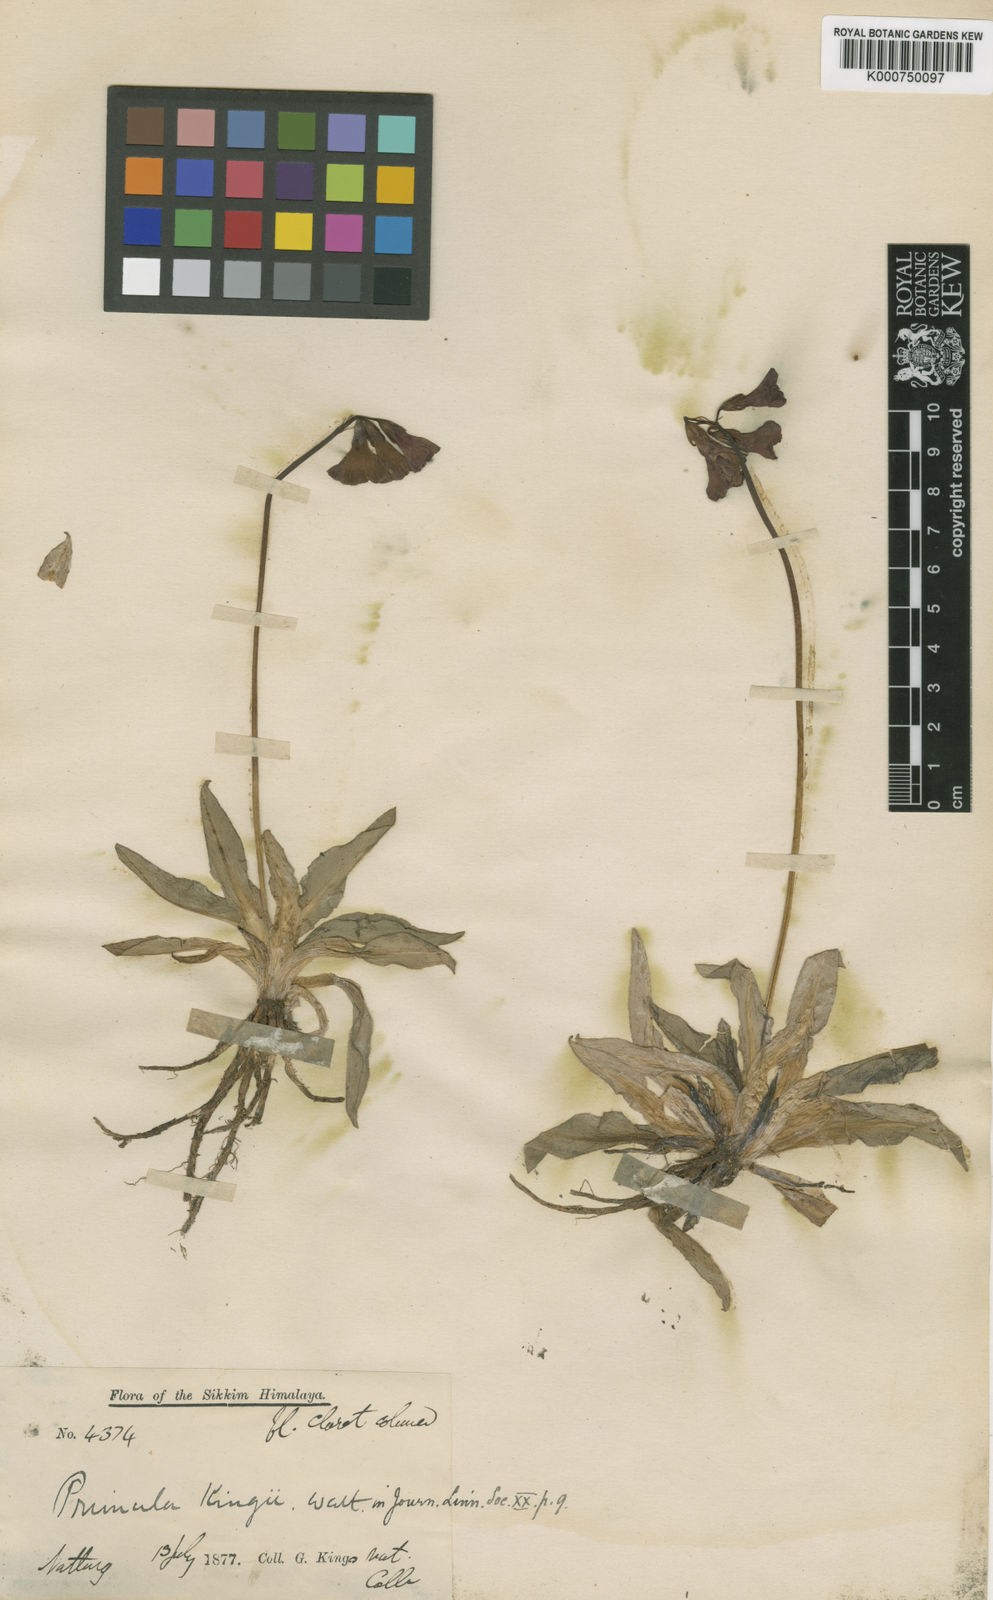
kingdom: Plantae
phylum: Tracheophyta
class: Magnoliopsida
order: Ericales
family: Primulaceae
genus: Primula
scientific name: Primula kingii
